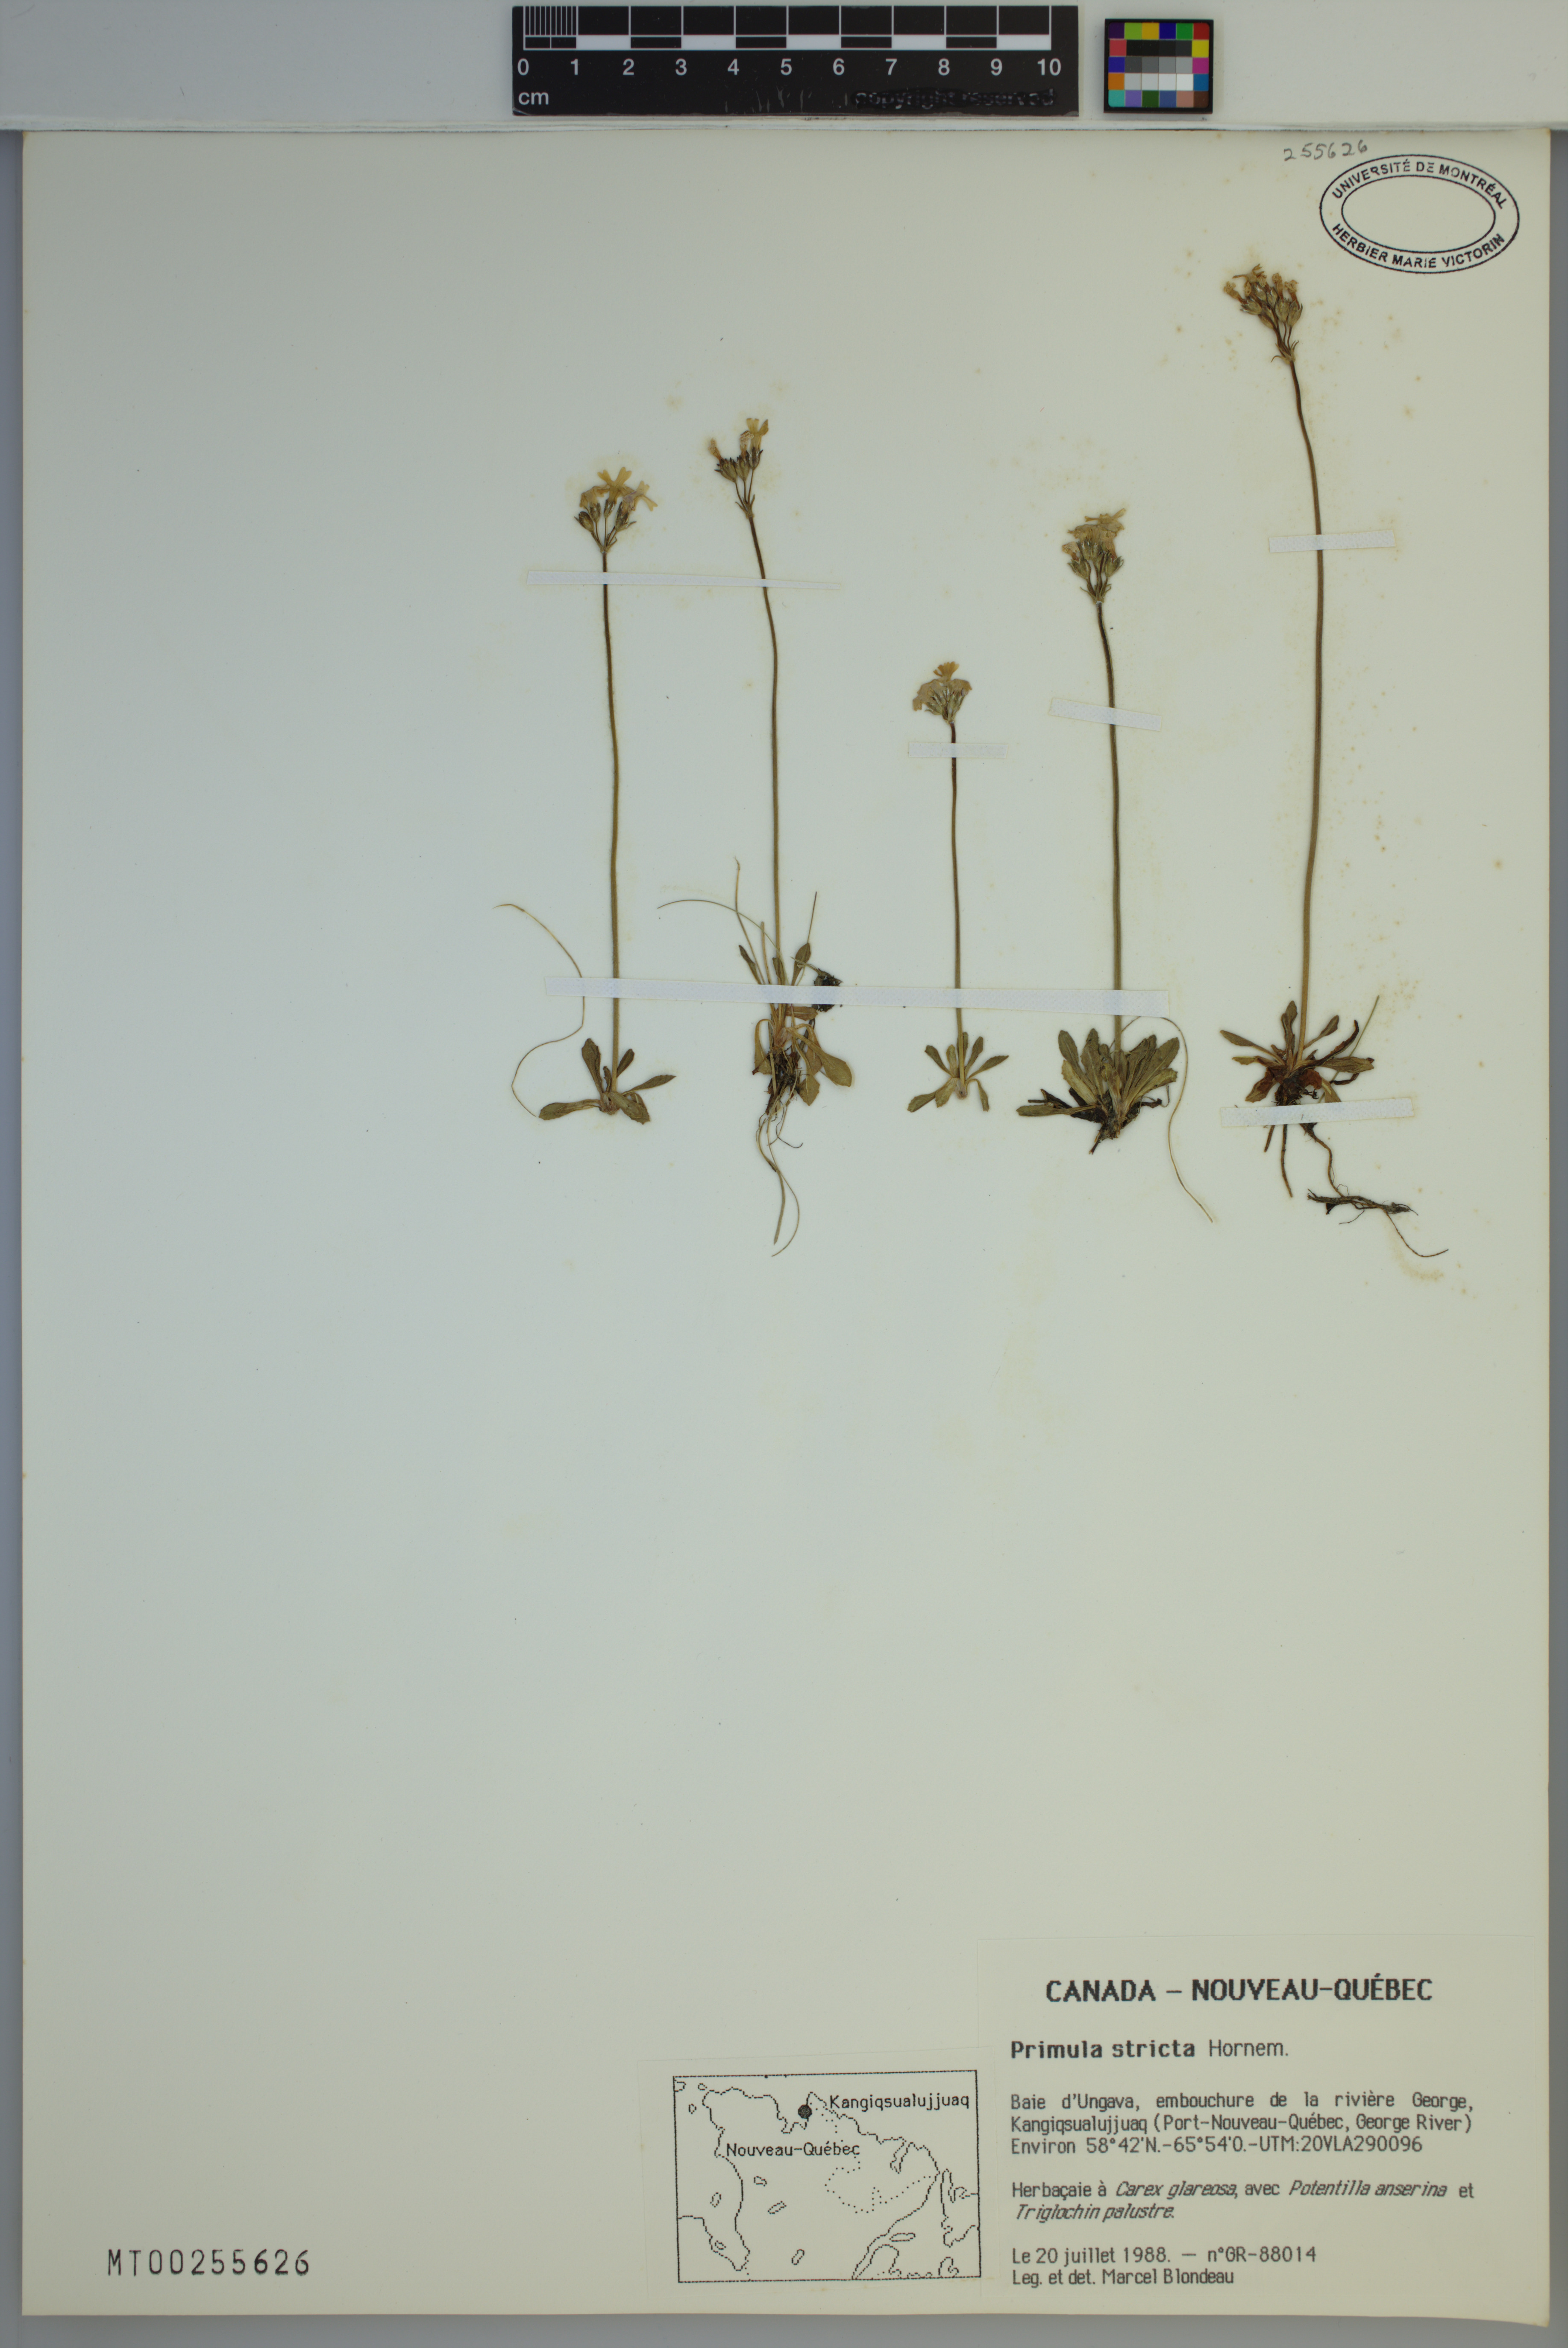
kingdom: Plantae
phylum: Tracheophyta
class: Magnoliopsida
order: Ericales
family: Primulaceae
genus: Primula
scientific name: Primula stricta
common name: Coastal primrose
